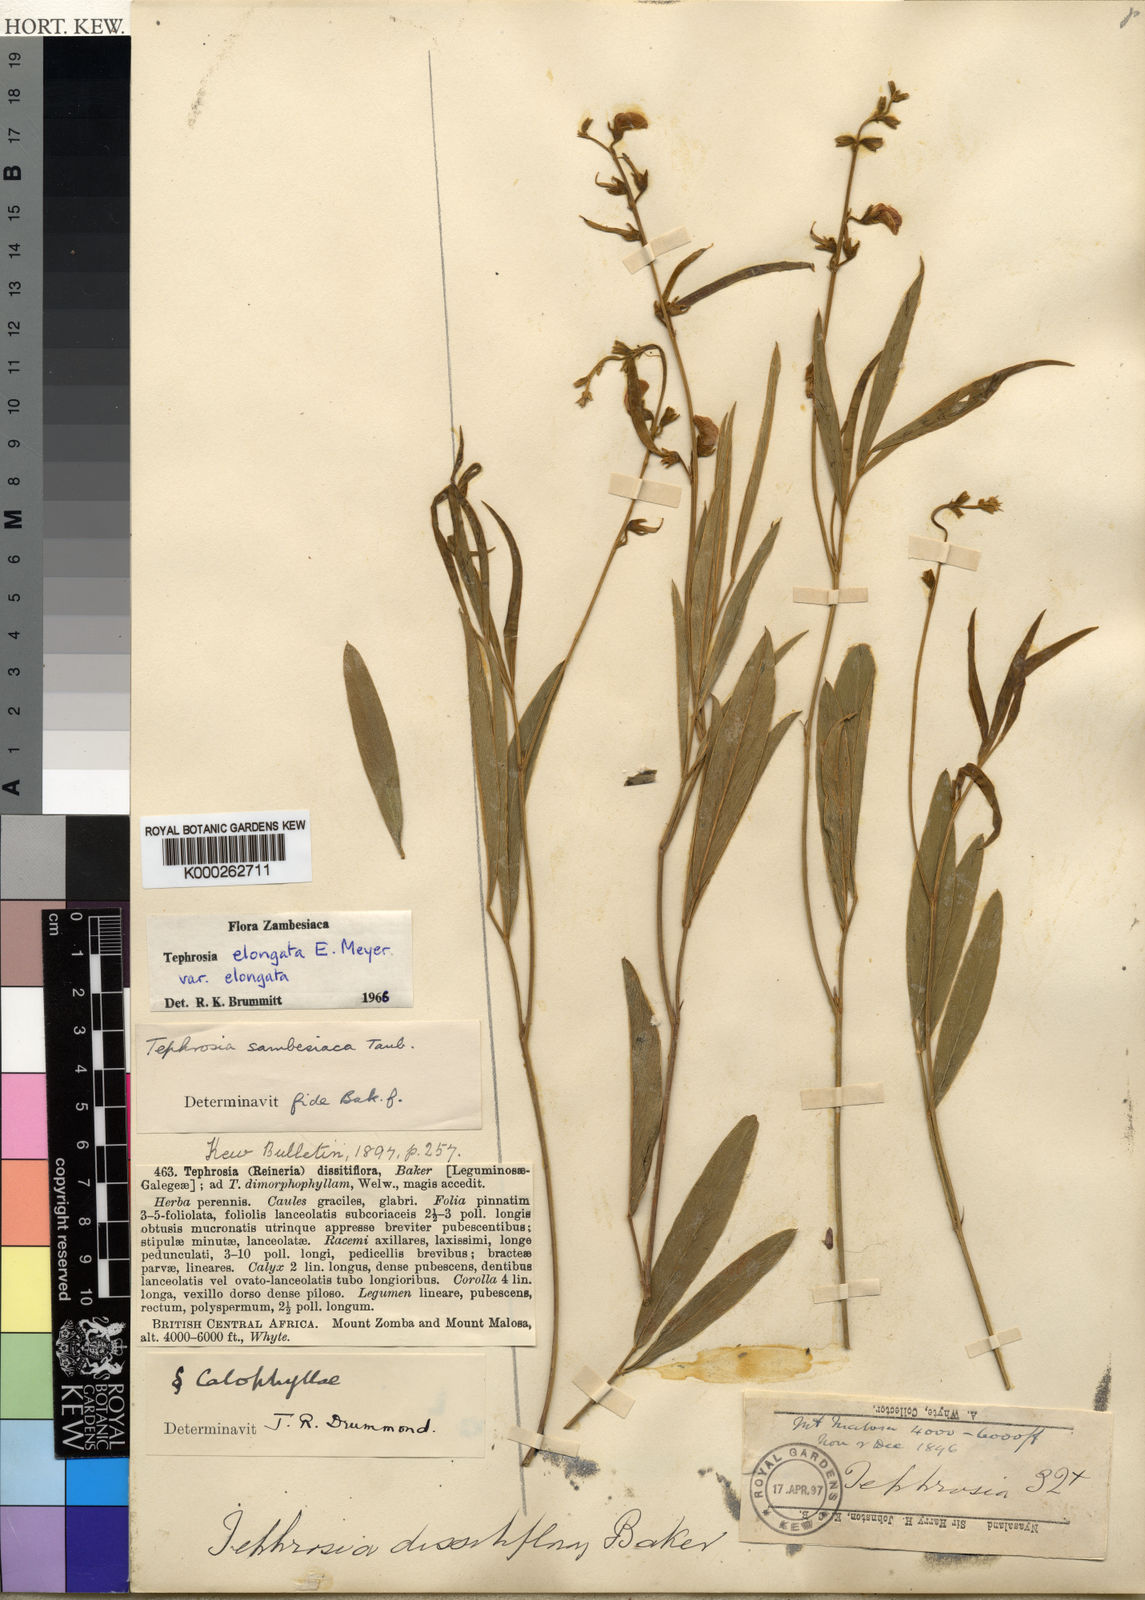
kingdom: Plantae
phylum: Tracheophyta
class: Magnoliopsida
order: Fabales
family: Fabaceae
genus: Tephrosia
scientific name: Tephrosia elongata
